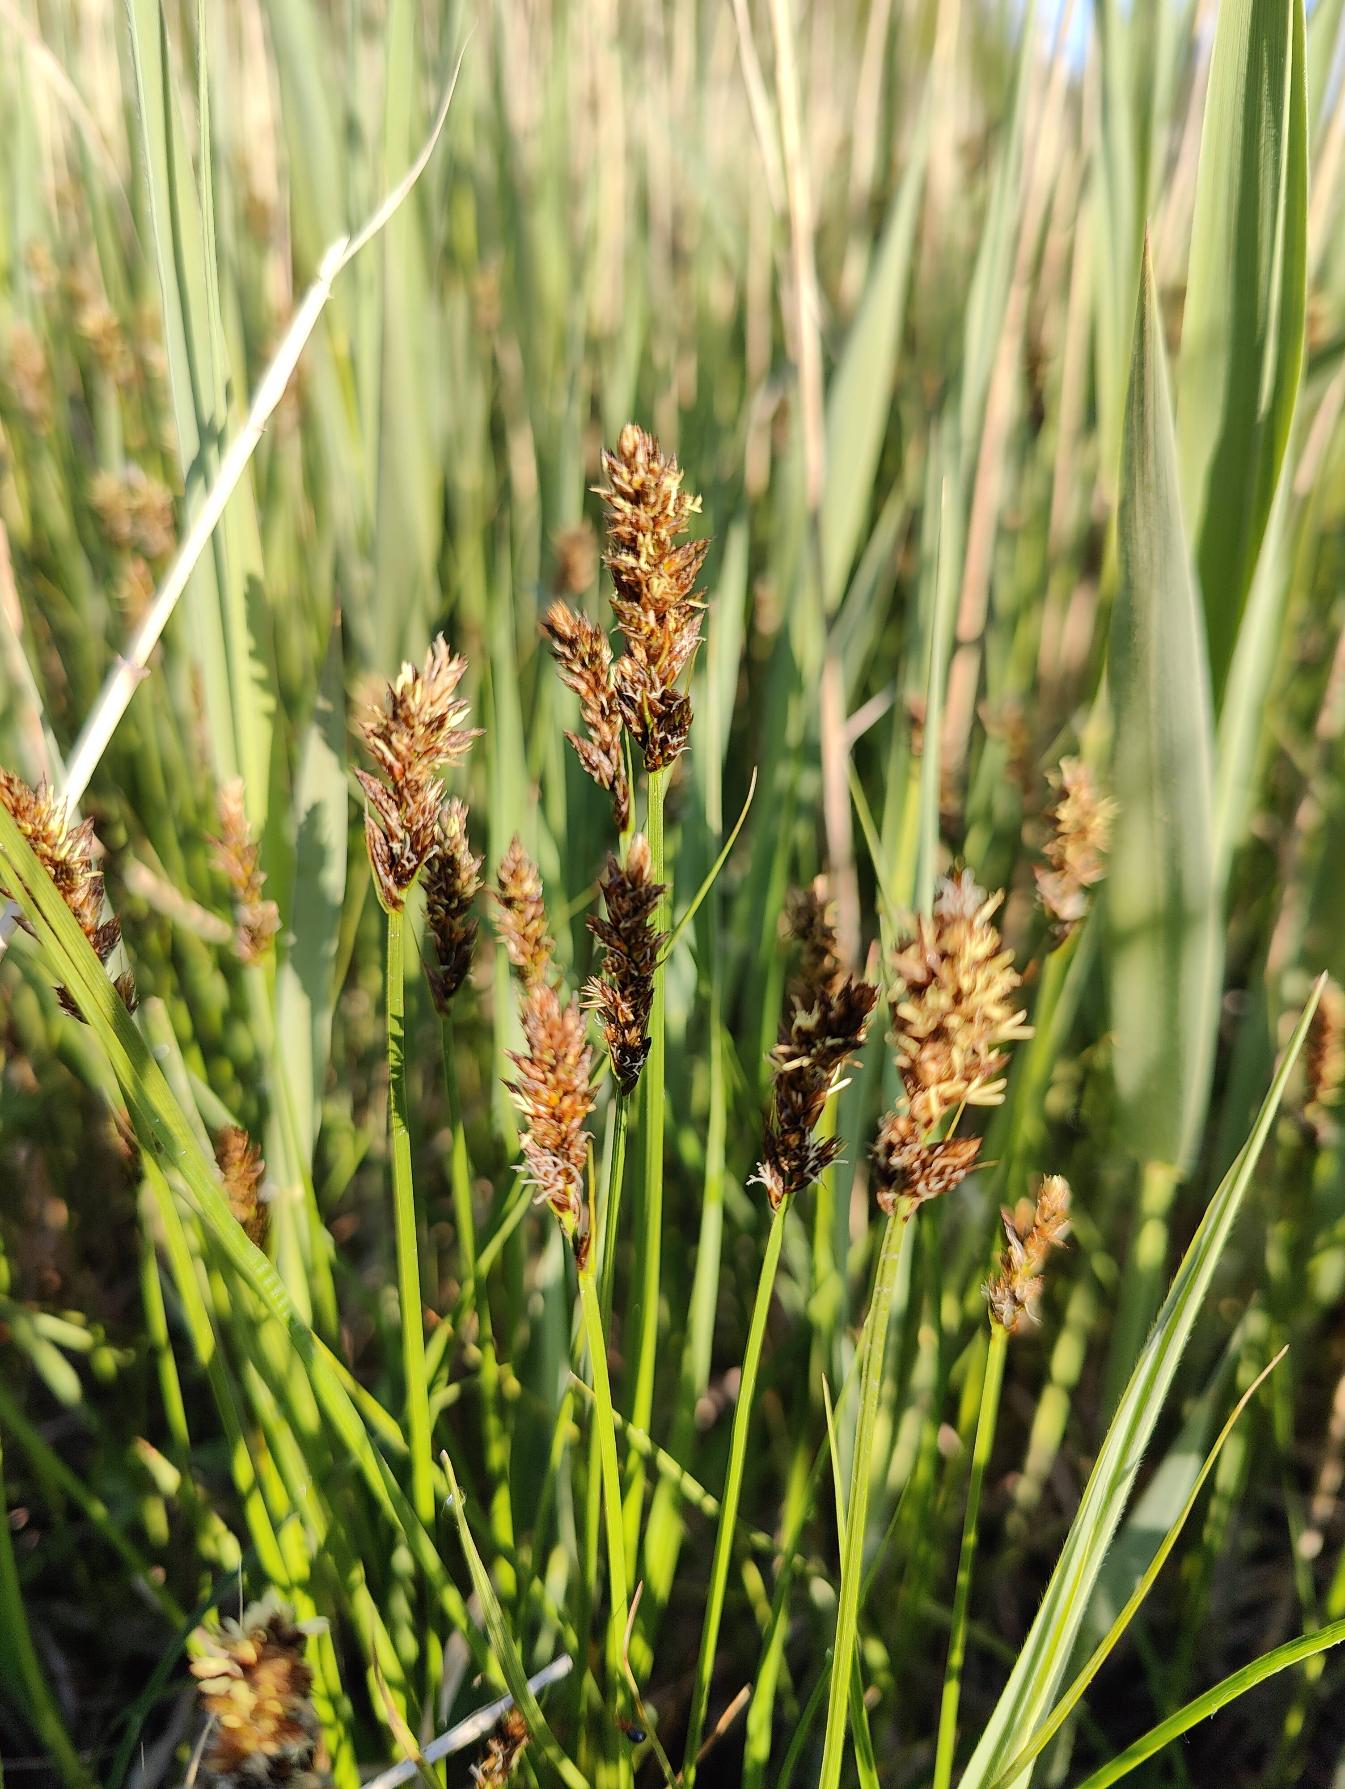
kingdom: Plantae
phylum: Tracheophyta
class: Liliopsida
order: Poales
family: Cyperaceae
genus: Carex
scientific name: Carex disticha
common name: Toradet star
